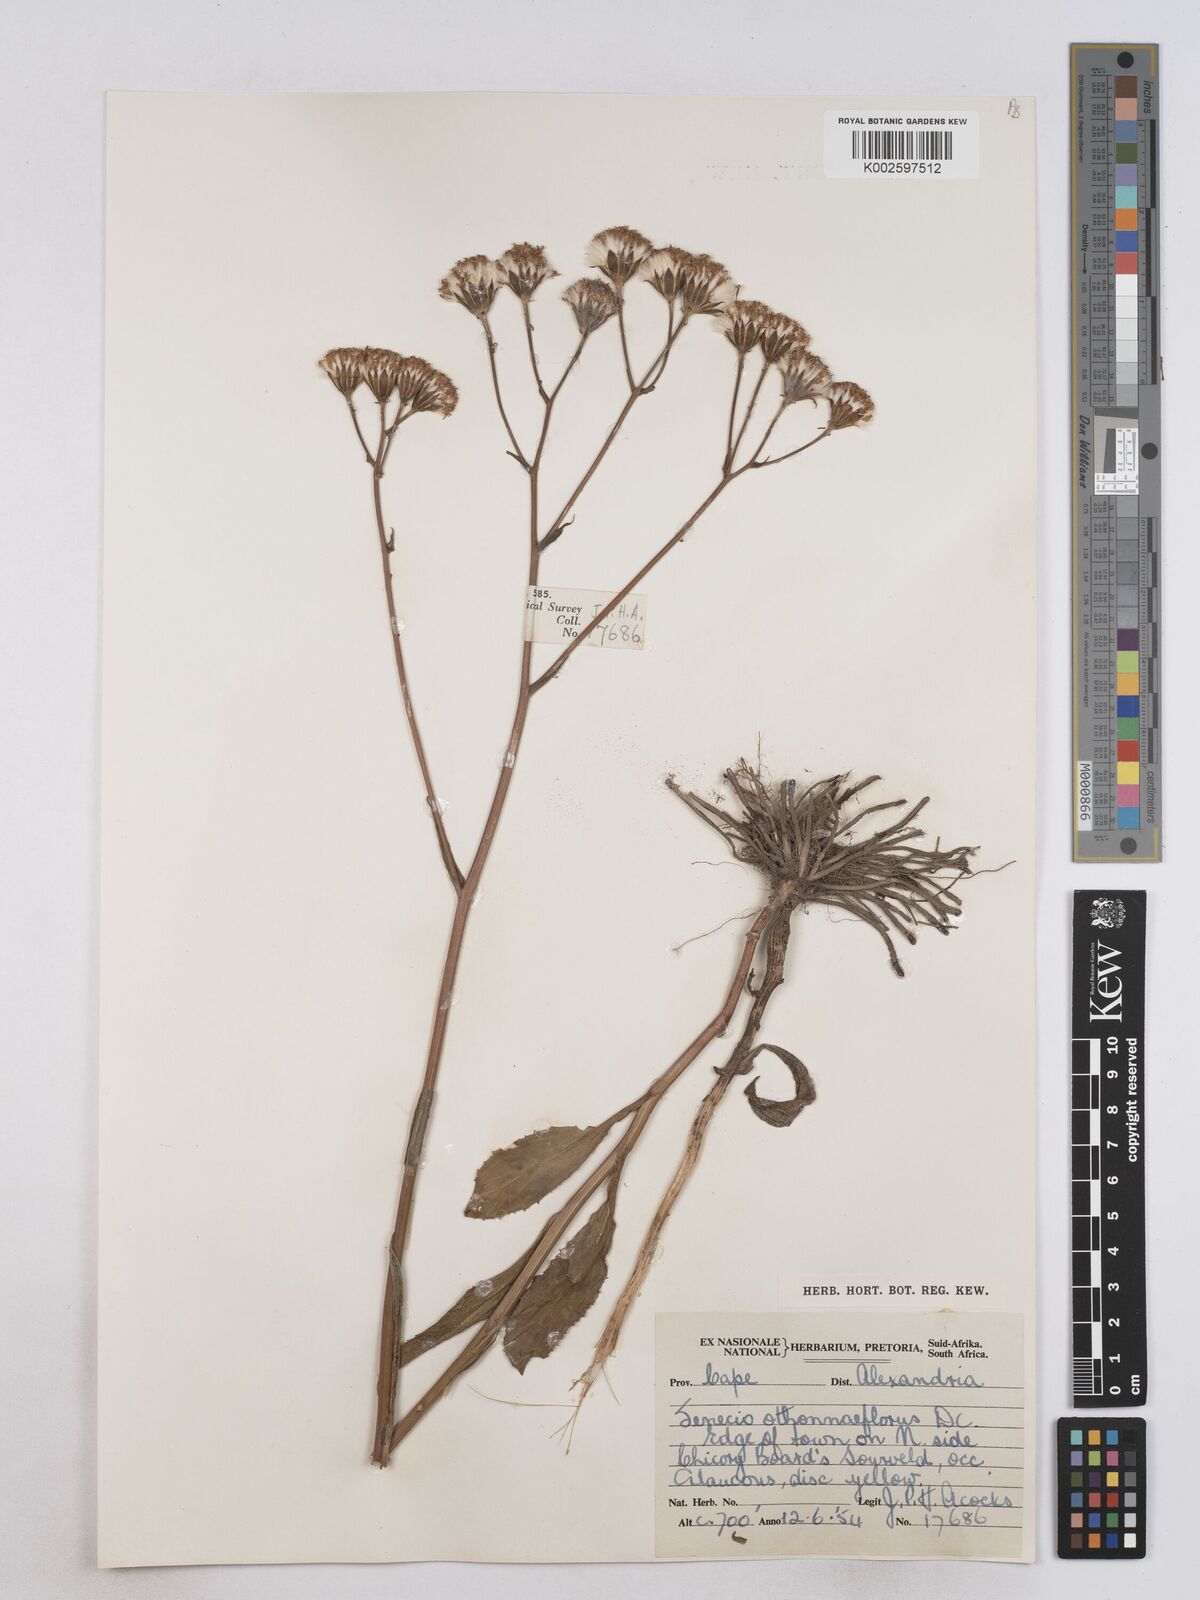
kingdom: Plantae
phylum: Tracheophyta
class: Magnoliopsida
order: Asterales
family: Asteraceae
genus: Senecio
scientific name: Senecio othonniflorus
